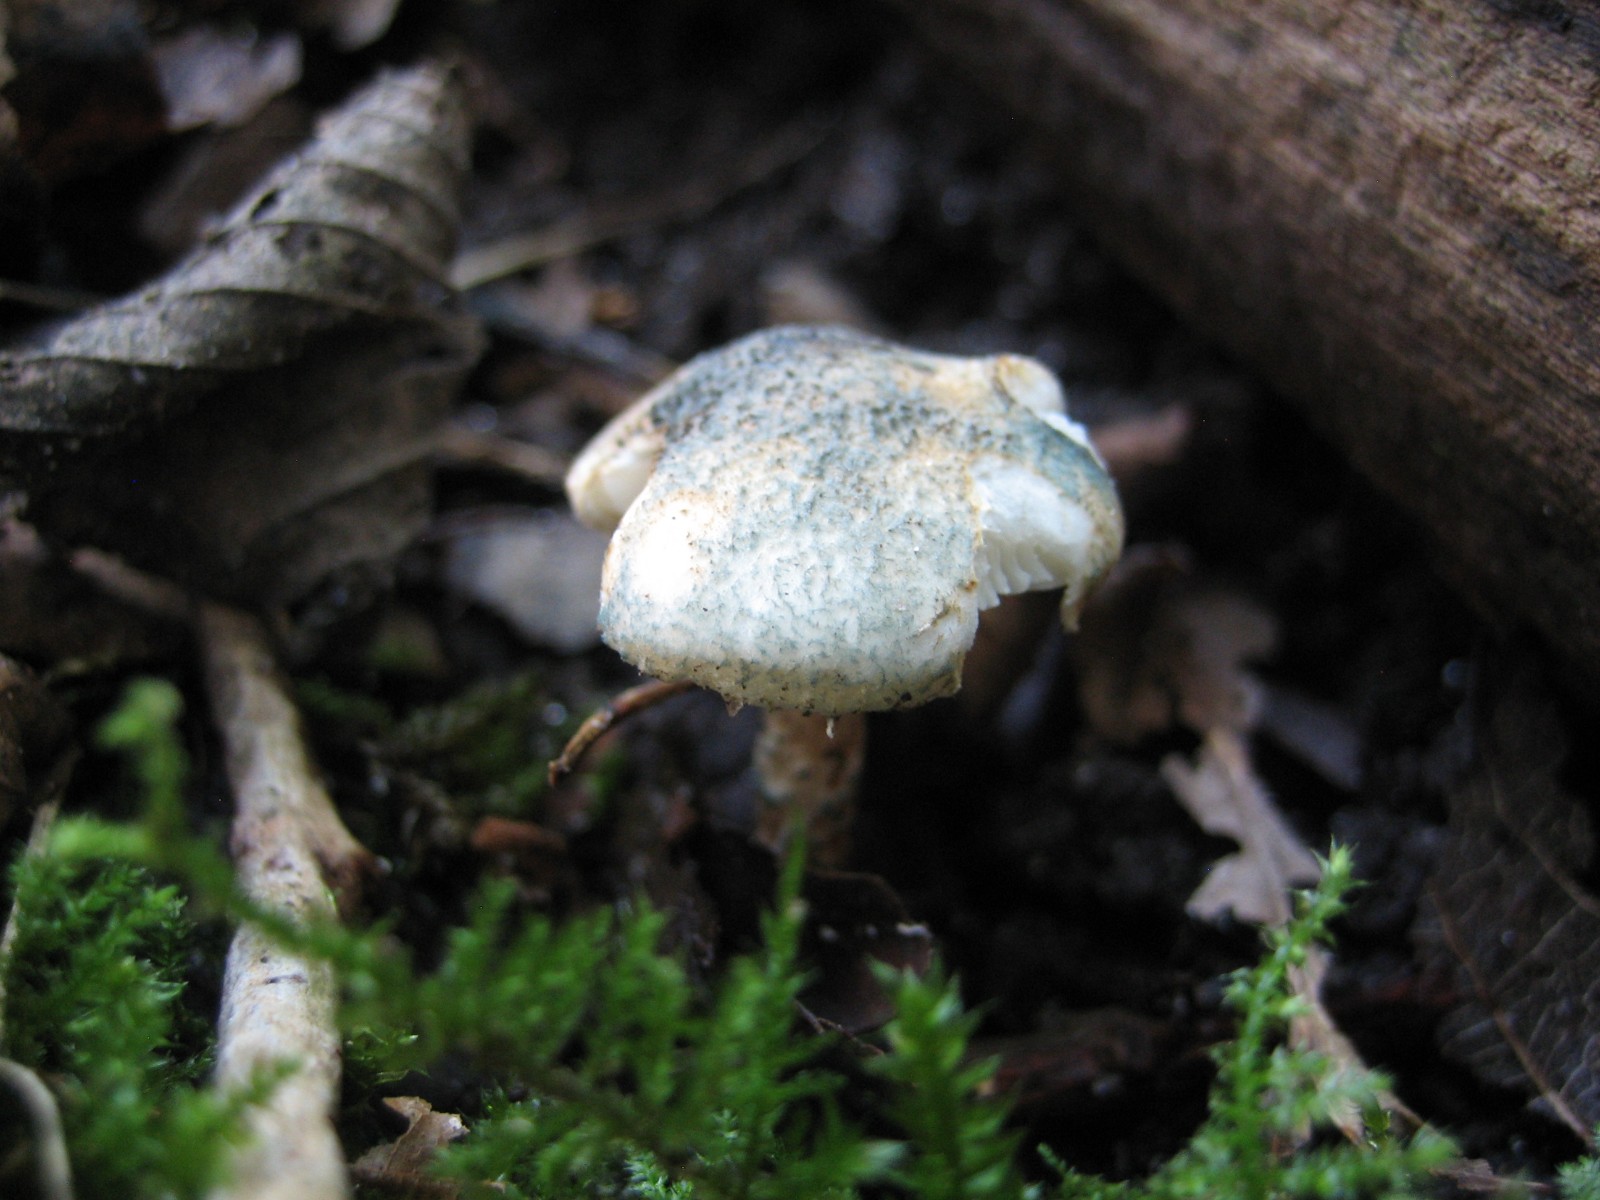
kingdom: Fungi
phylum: Basidiomycota
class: Agaricomycetes
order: Agaricales
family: Agaricaceae
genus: Lepiota
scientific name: Lepiota grangei
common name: grønskællet parasolhat
